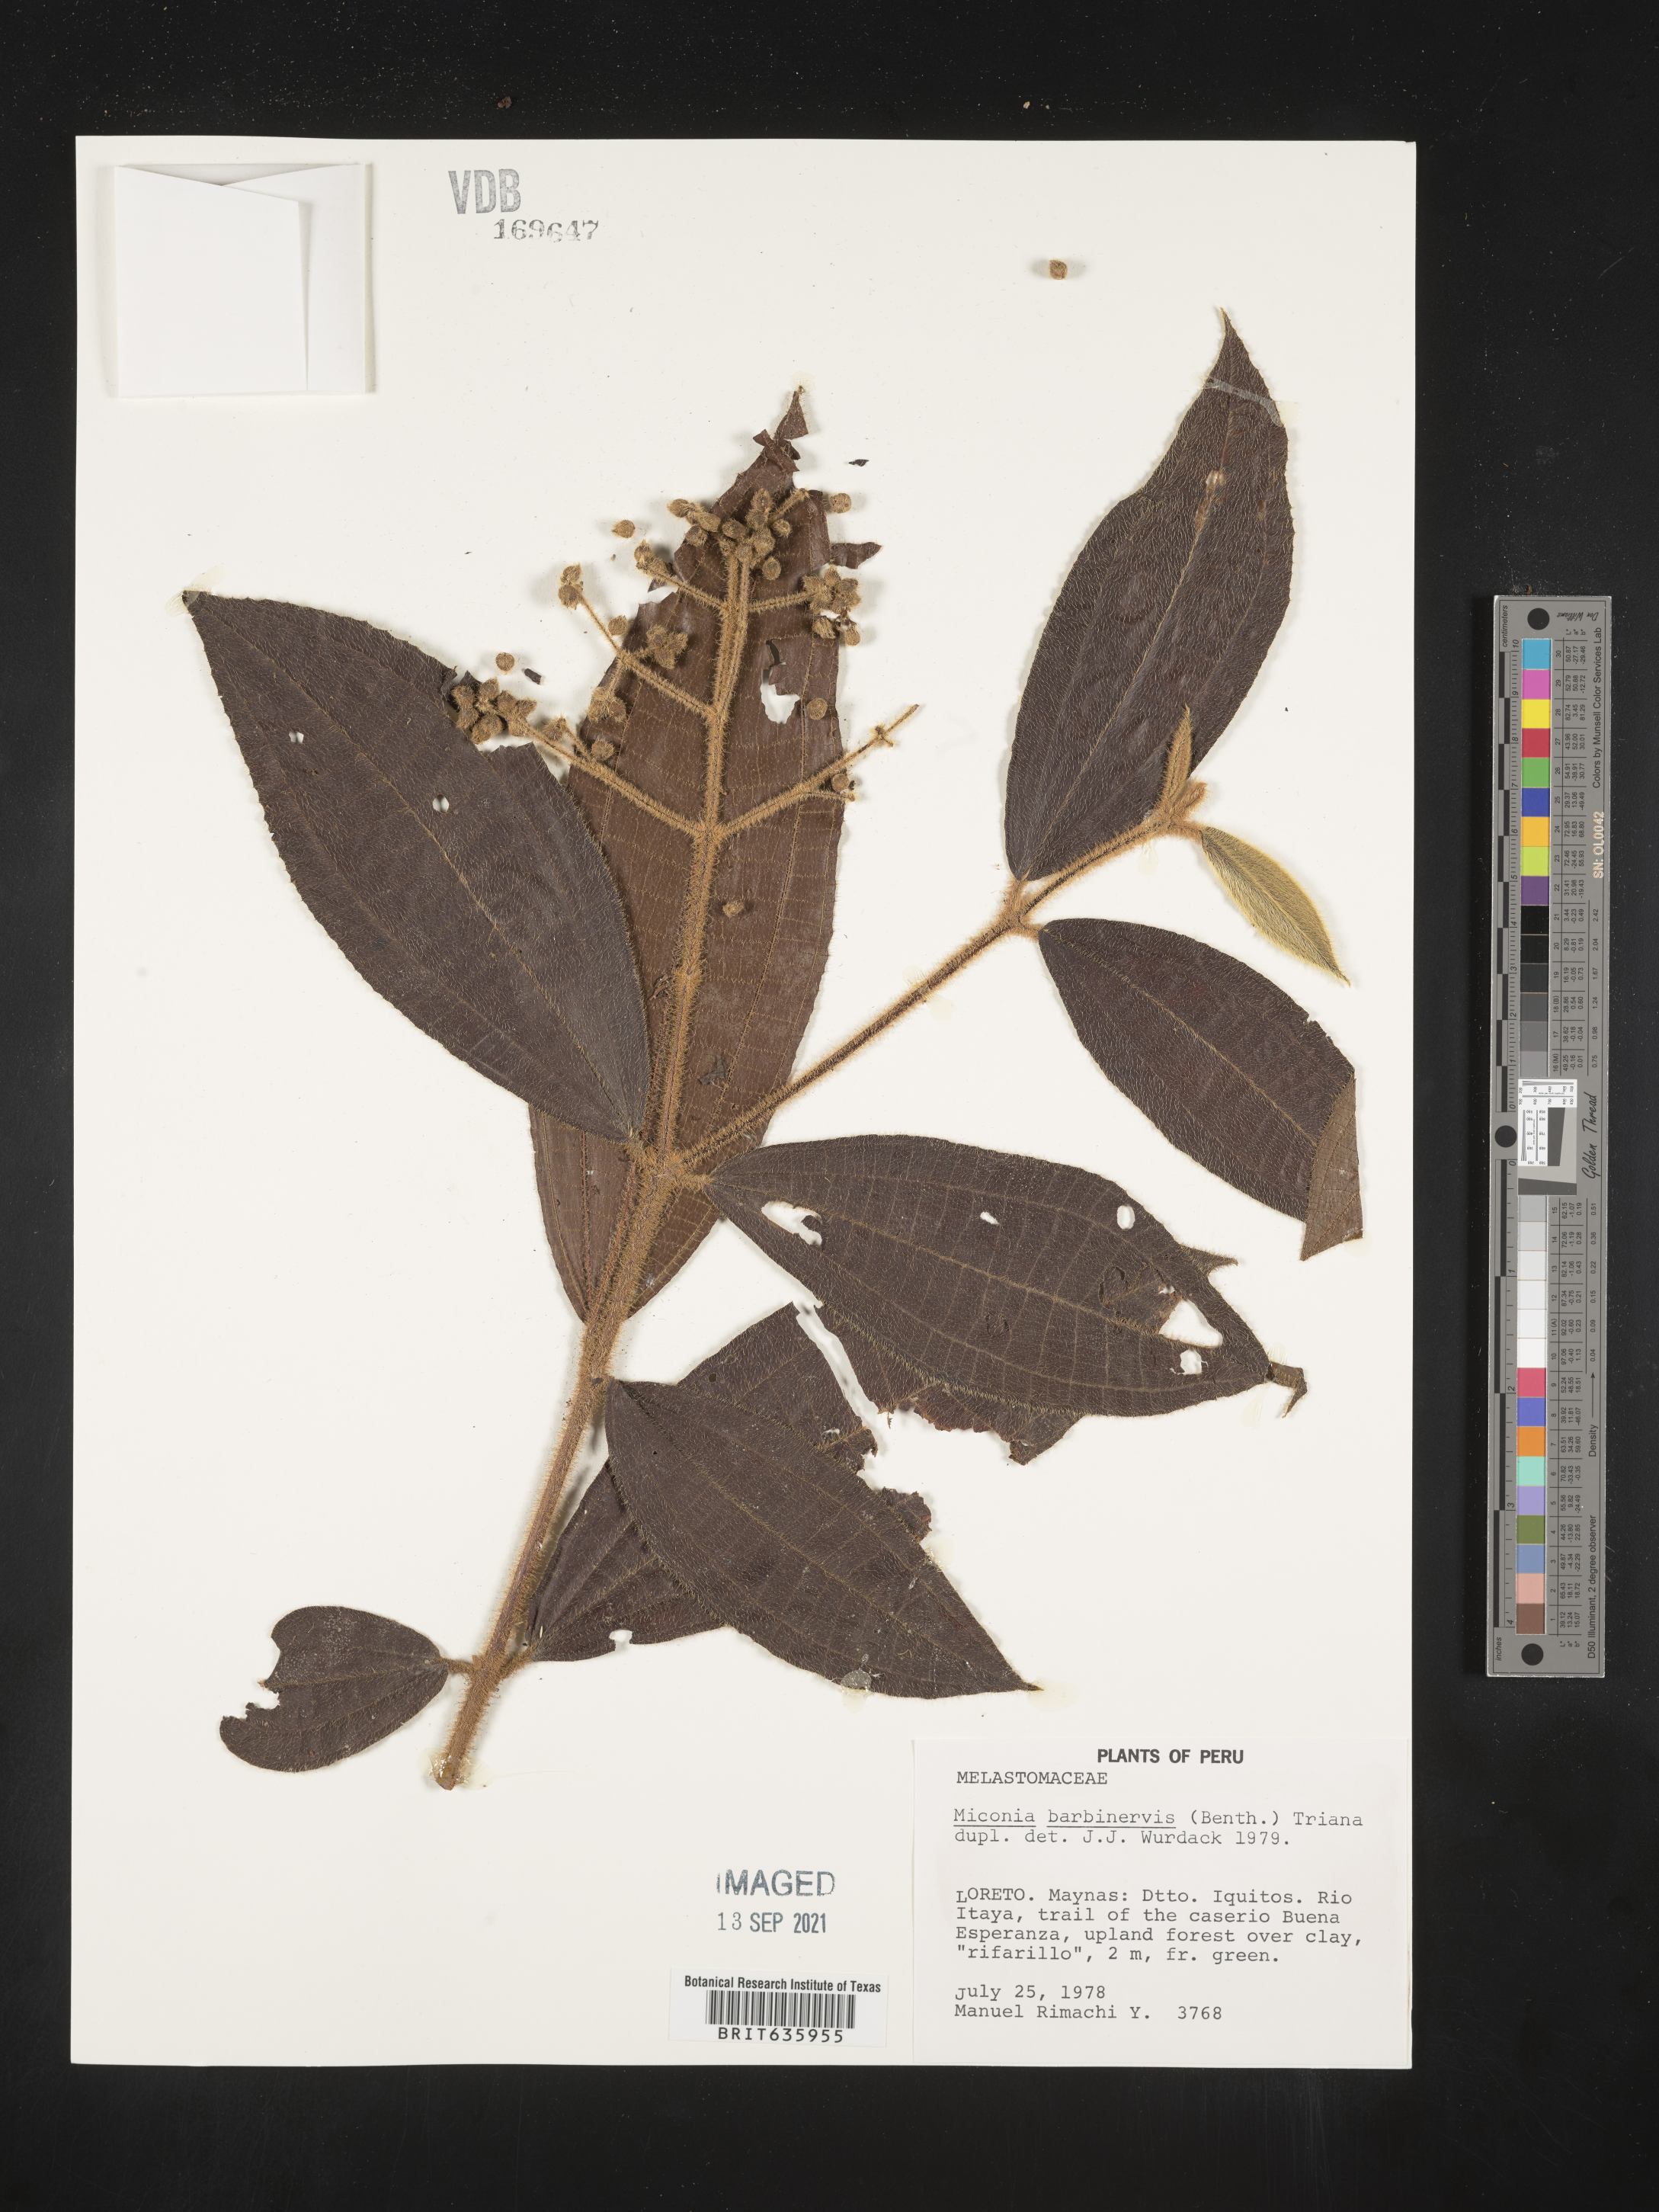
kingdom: Plantae
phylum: Tracheophyta
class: Magnoliopsida
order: Myrtales
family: Melastomataceae
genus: Miconia
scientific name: Miconia
